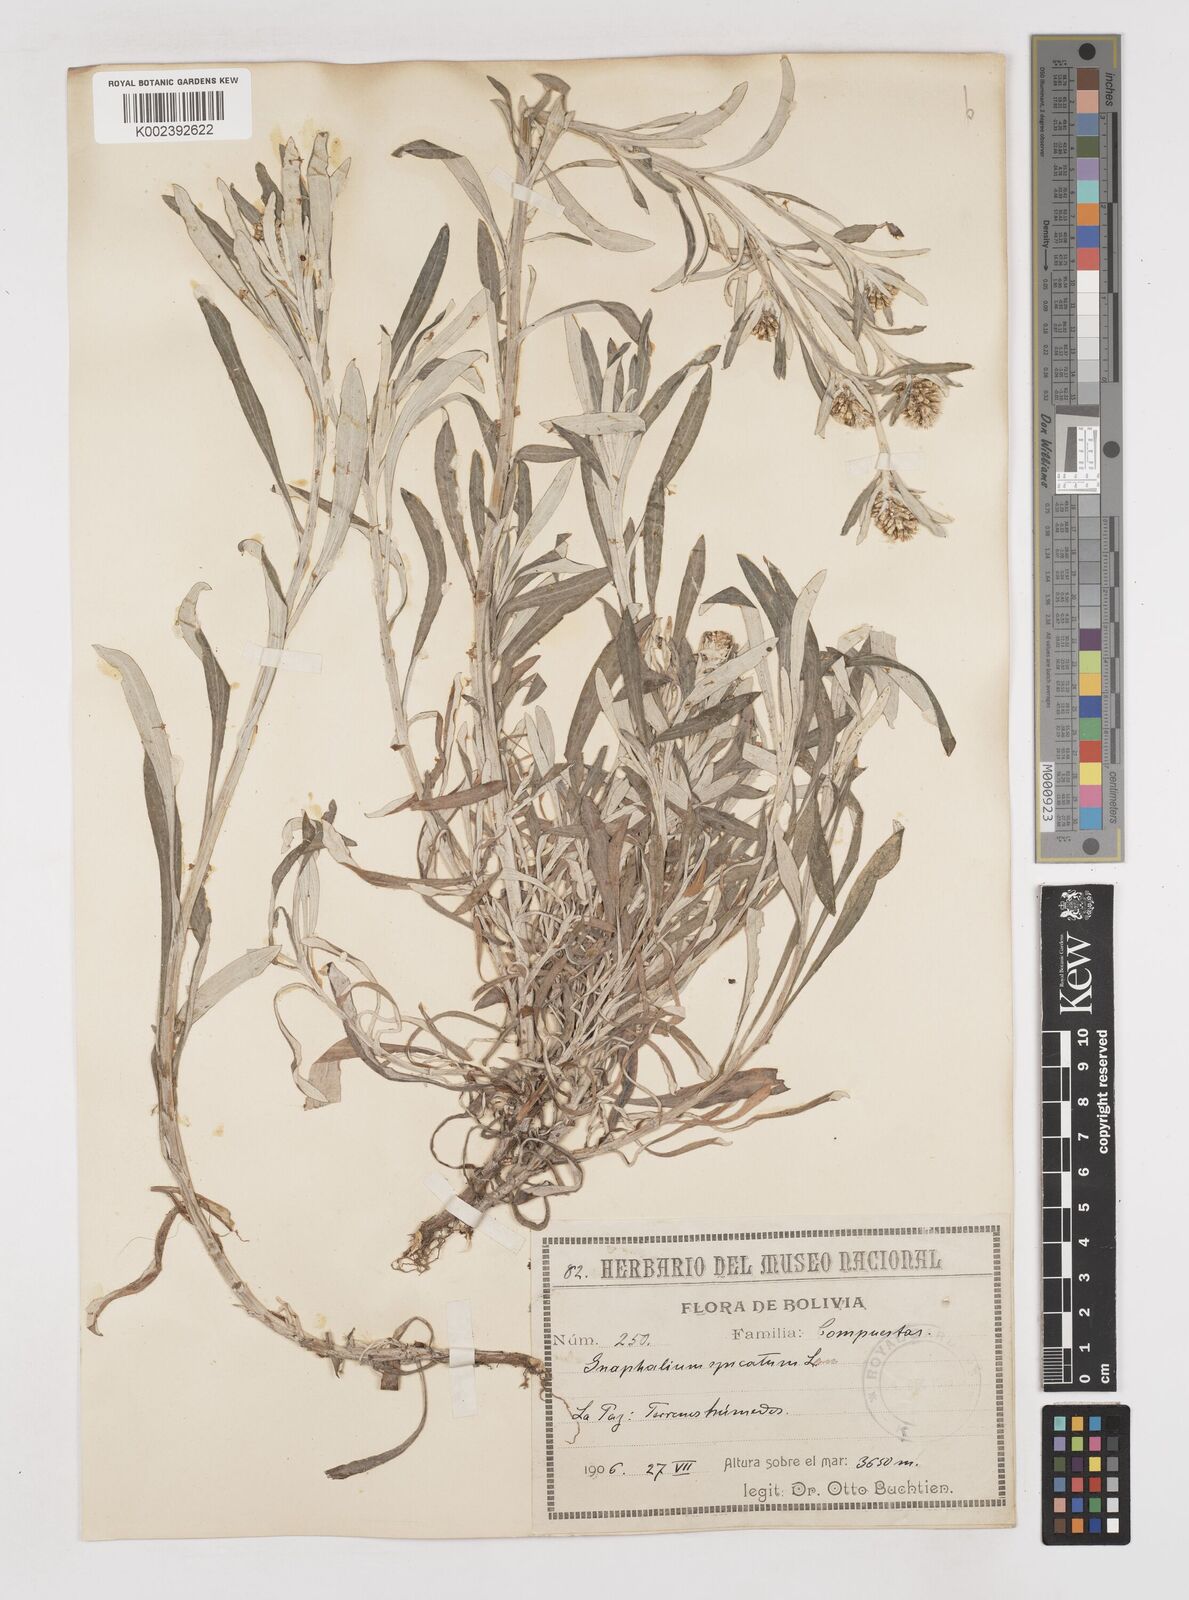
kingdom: Plantae
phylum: Tracheophyta
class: Magnoliopsida
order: Asterales
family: Asteraceae
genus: Gamochaeta
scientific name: Gamochaeta americana
